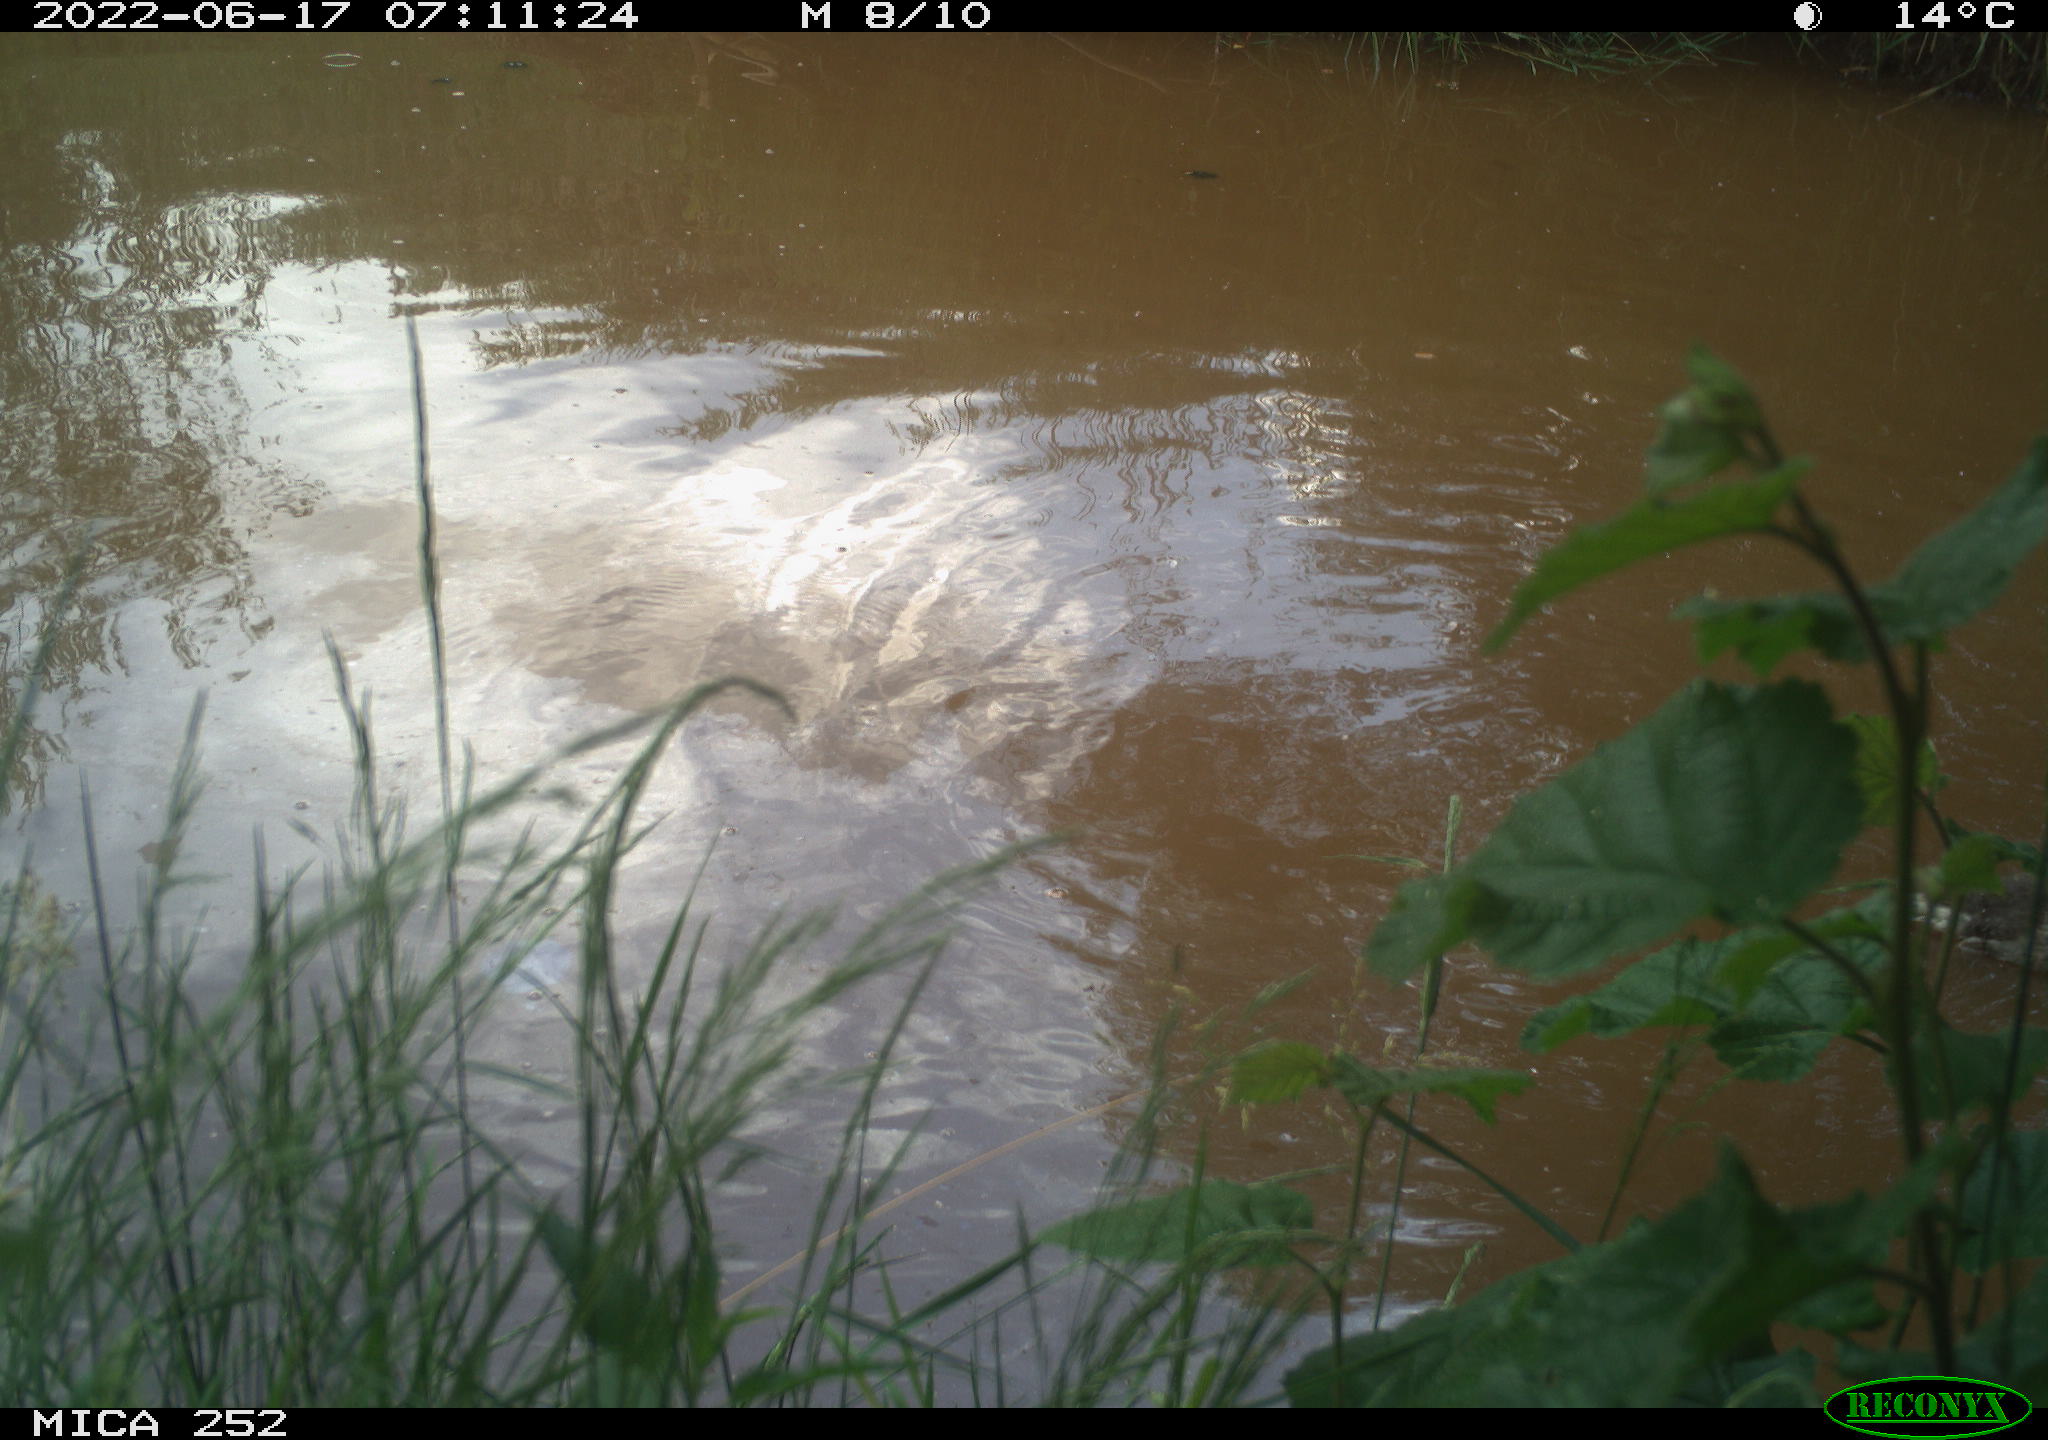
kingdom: Animalia
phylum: Chordata
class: Aves
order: Gruiformes
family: Rallidae
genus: Gallinula
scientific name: Gallinula chloropus
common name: Common moorhen
